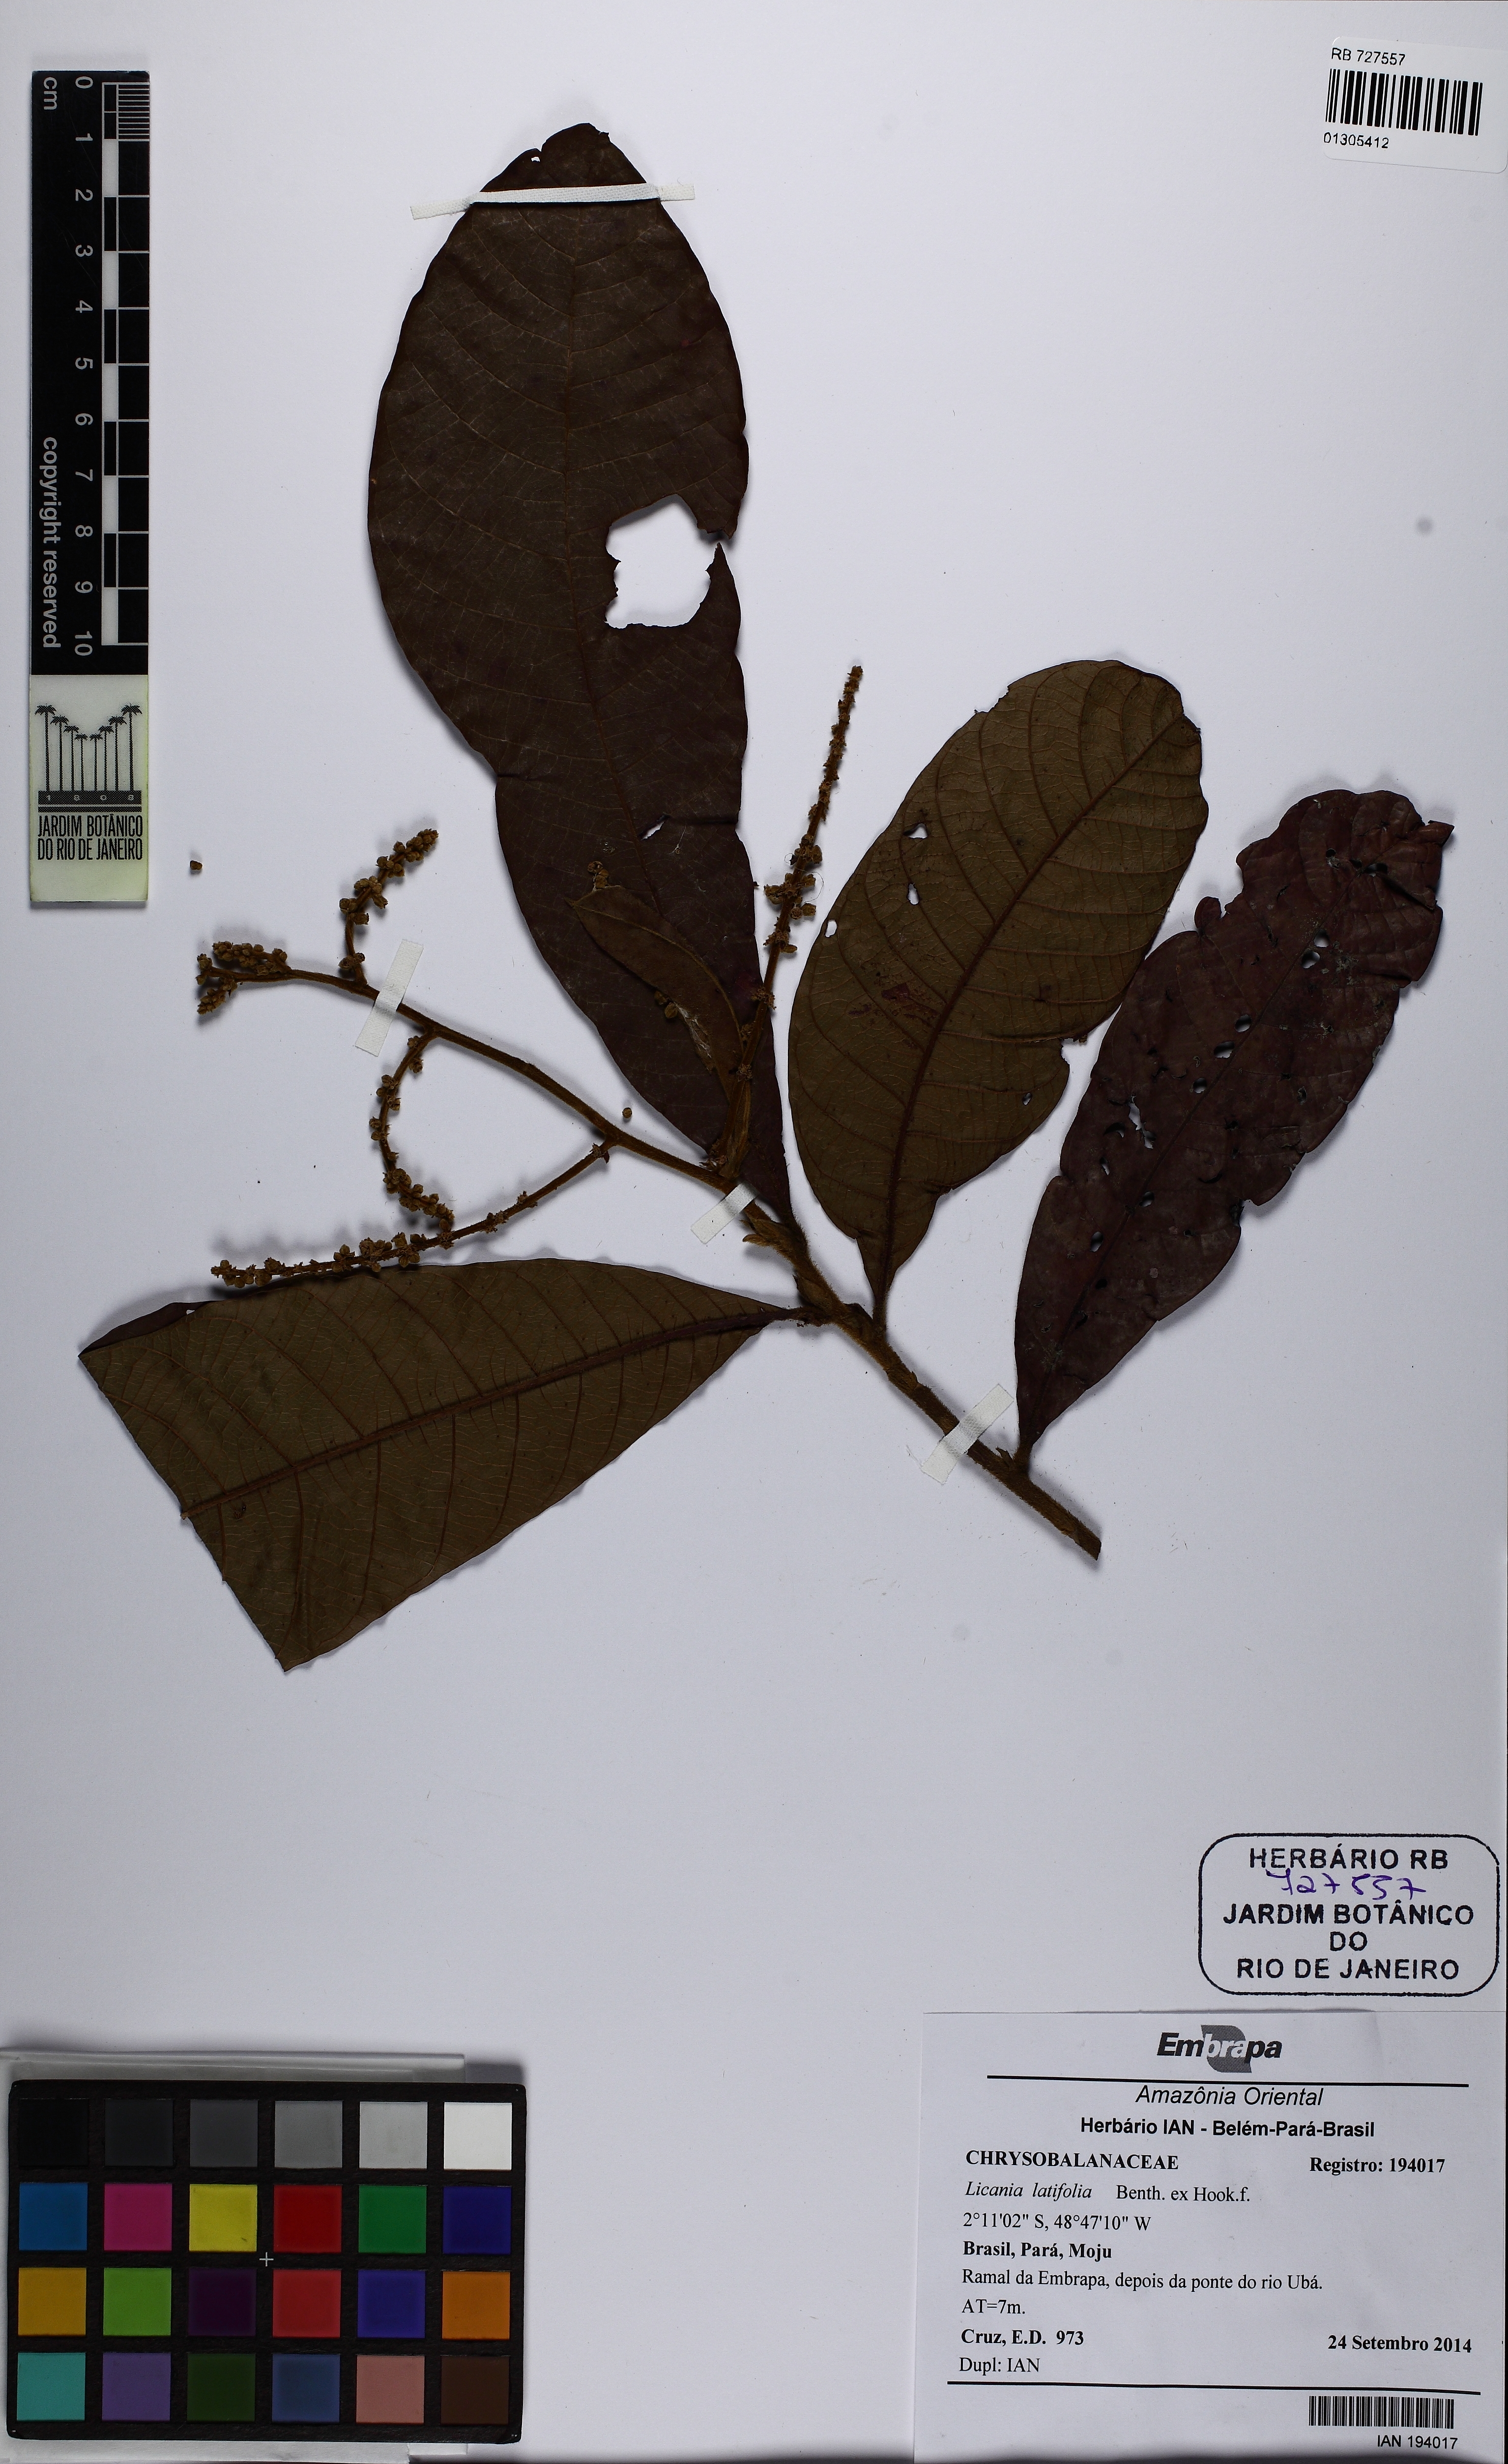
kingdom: Plantae
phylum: Tracheophyta
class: Magnoliopsida
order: Malpighiales
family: Chrysobalanaceae
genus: Hymenopus
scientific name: Hymenopus latifolius
